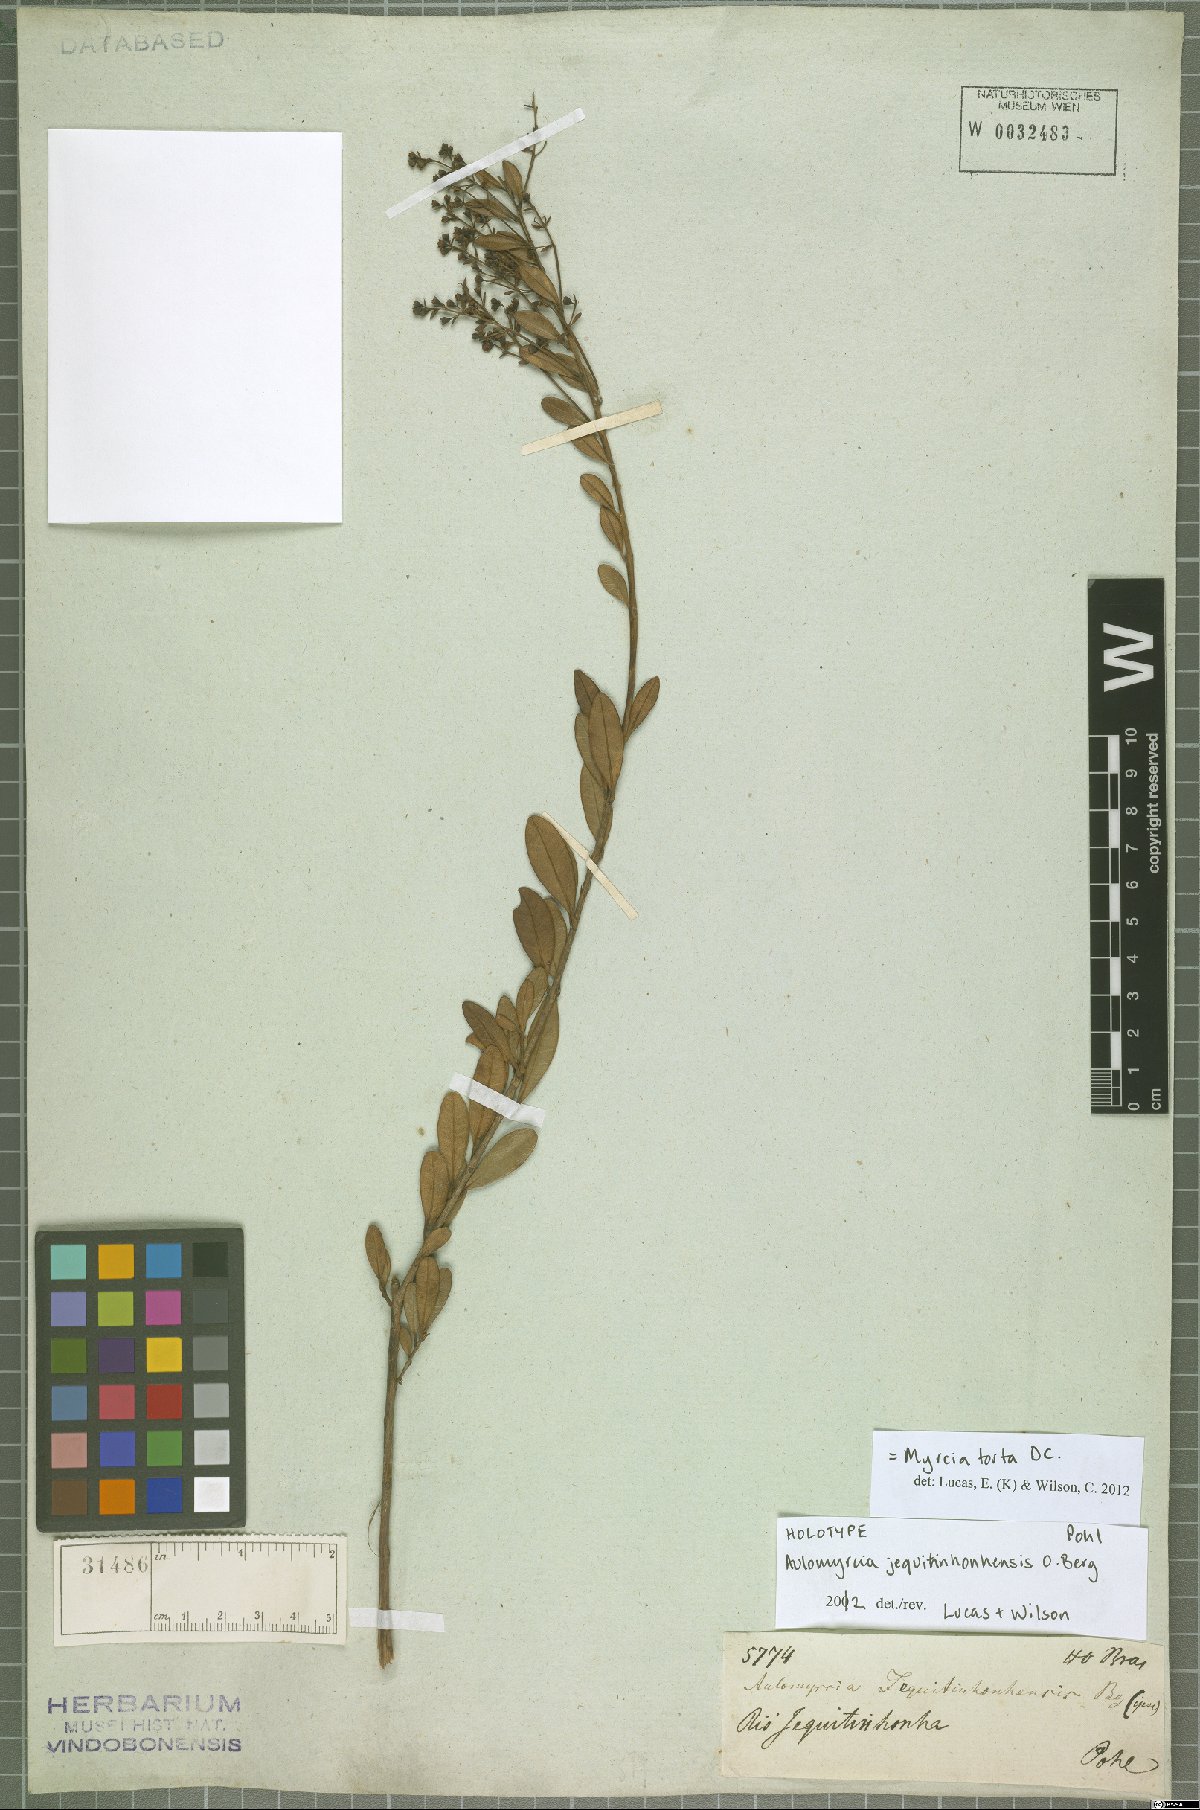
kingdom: Plantae
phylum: Tracheophyta
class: Magnoliopsida
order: Myrtales
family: Myrtaceae
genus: Myrcia
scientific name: Myrcia guianensis
